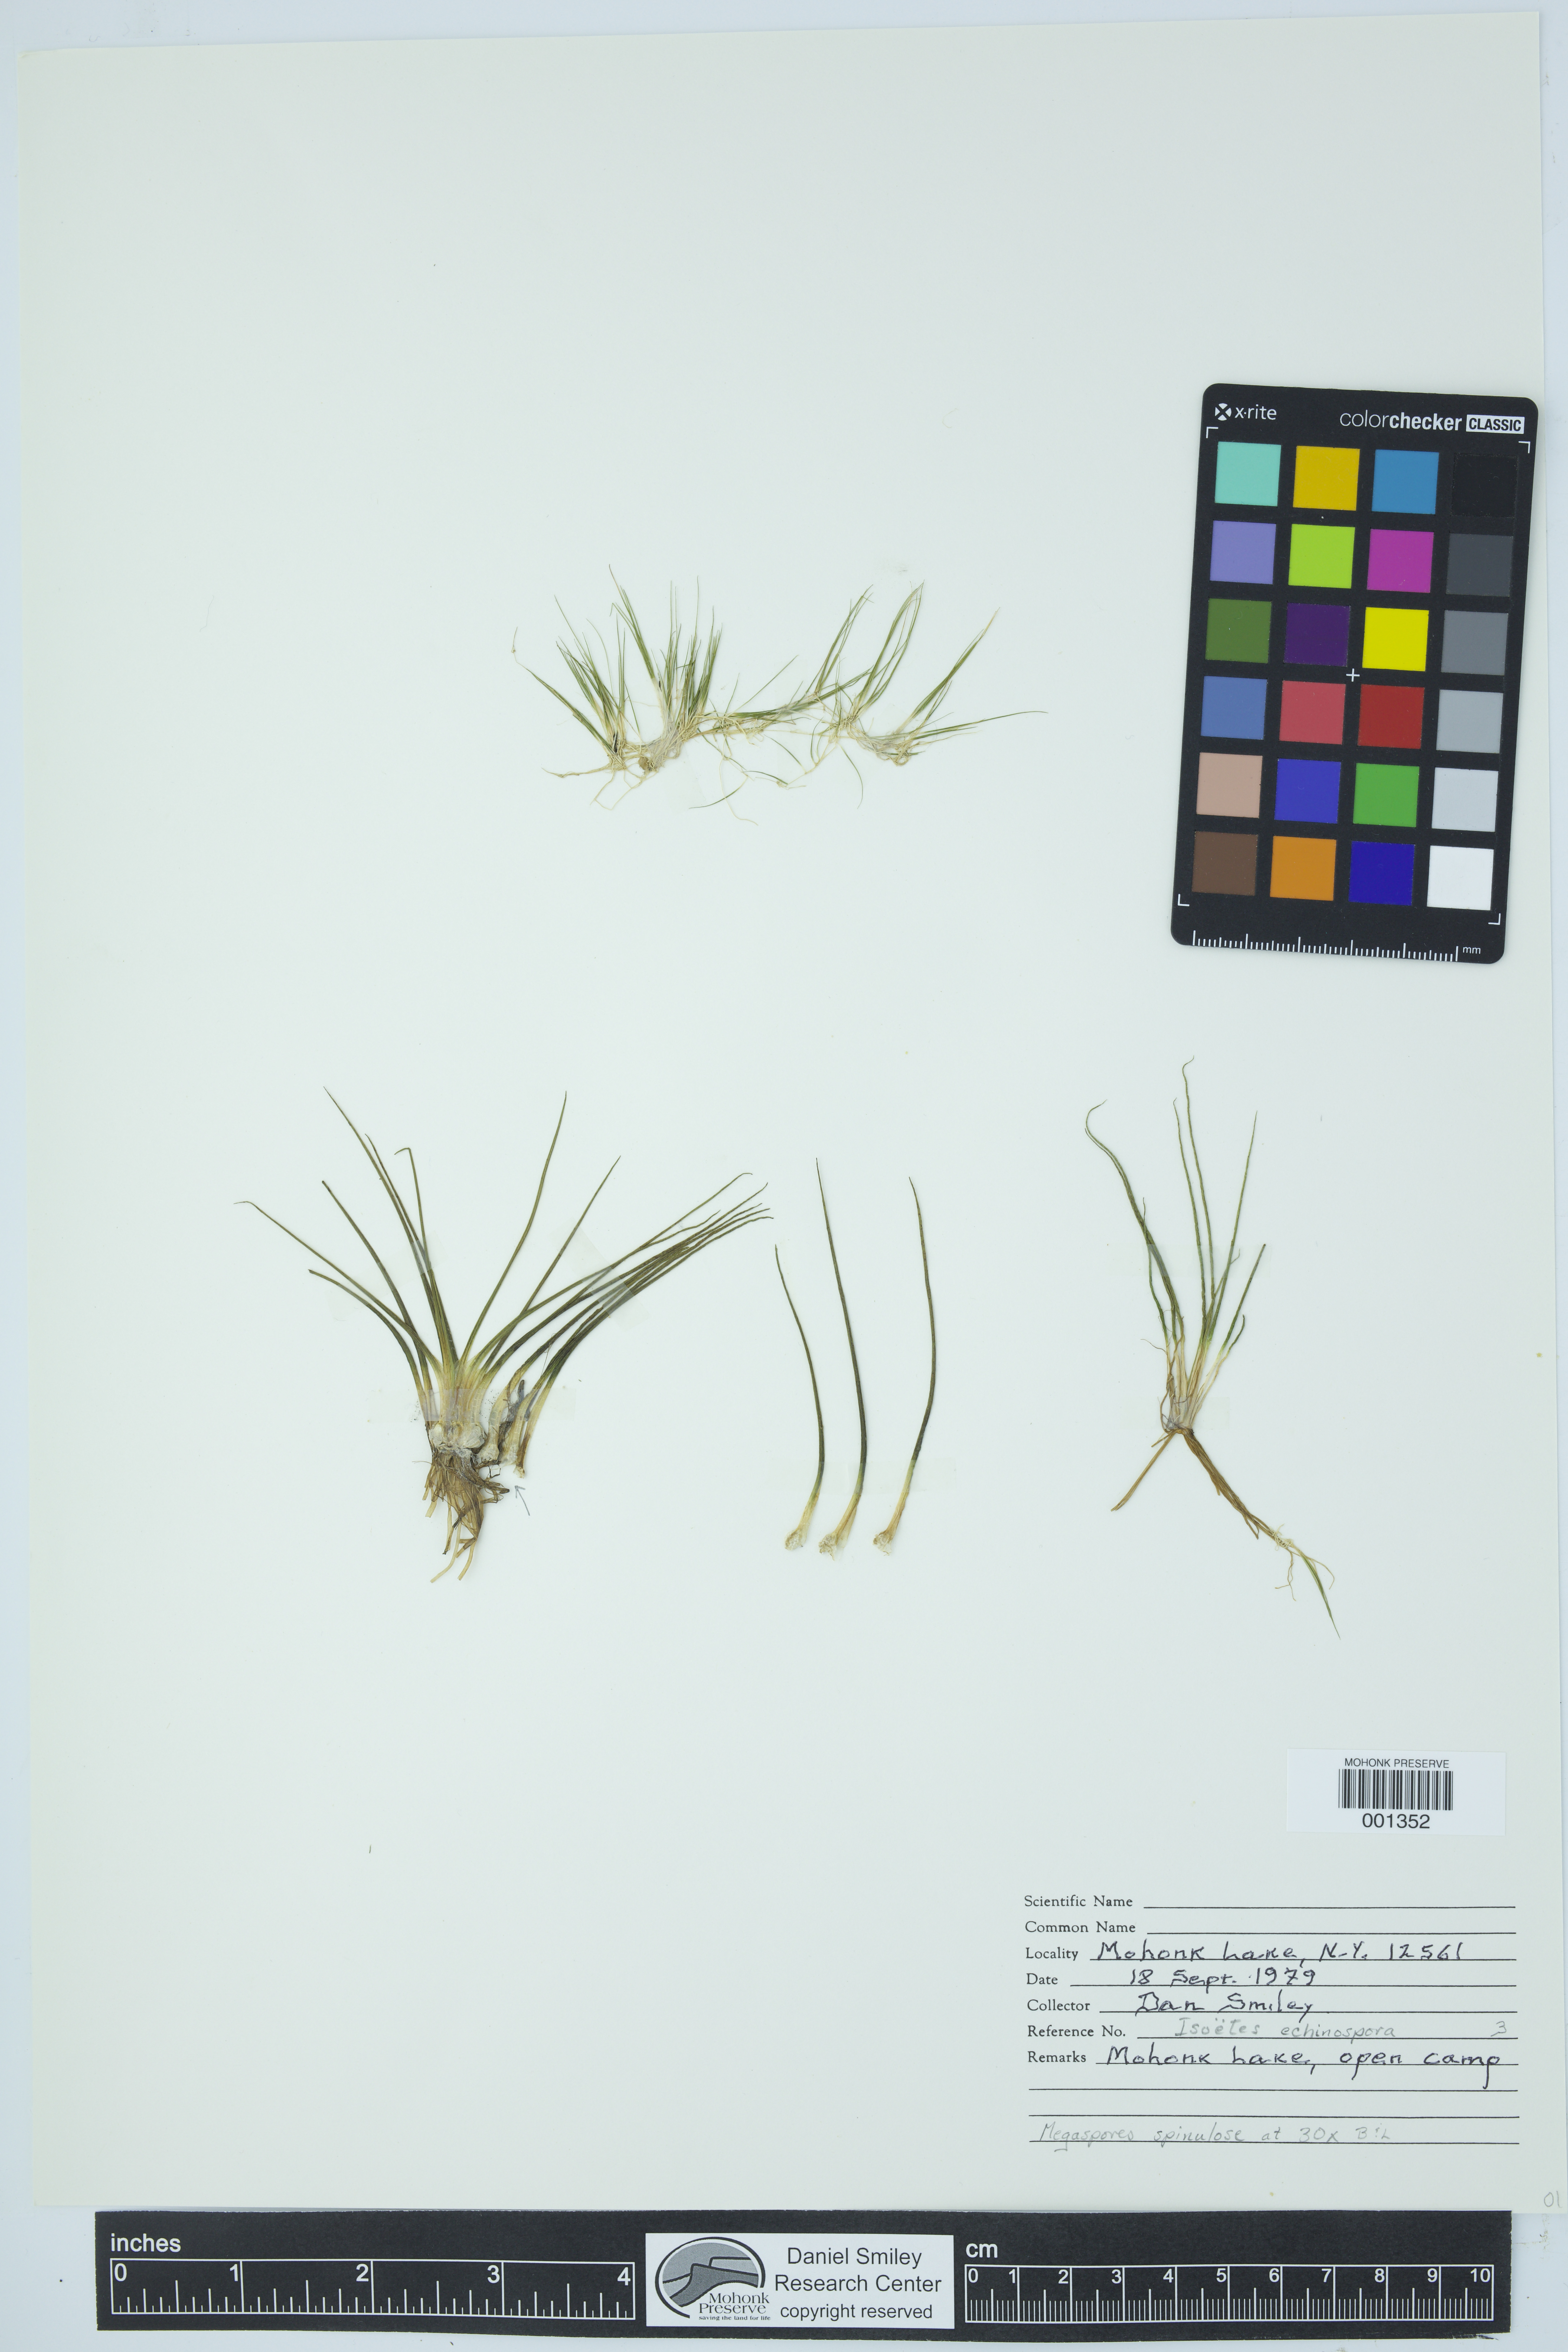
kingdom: Plantae
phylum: Tracheophyta
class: Lycopodiopsida
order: Isoetales
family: Isoetaceae
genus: Isoetes
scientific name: Isoetes echinospora
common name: Spring quillwort
